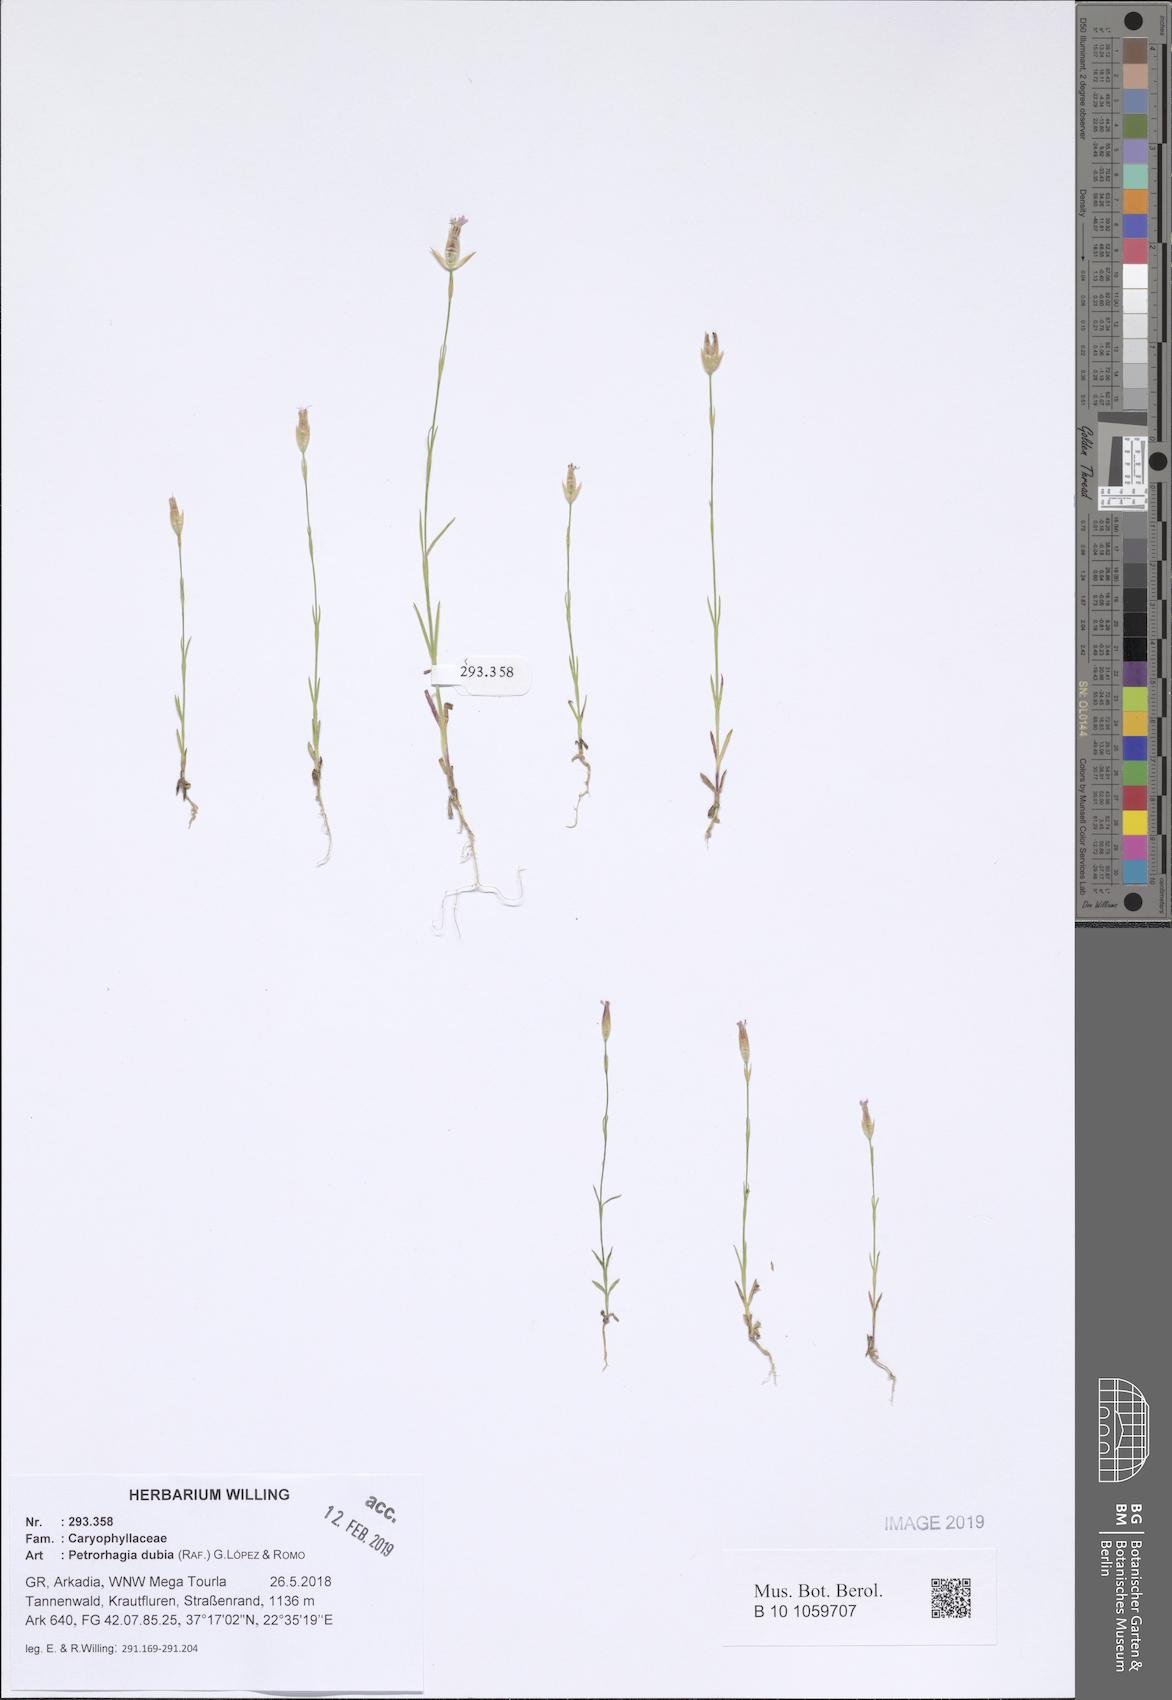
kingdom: Plantae
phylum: Tracheophyta
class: Magnoliopsida
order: Caryophyllales
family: Caryophyllaceae
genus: Petrorhagia
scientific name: Petrorhagia dubia
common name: Hairypink
